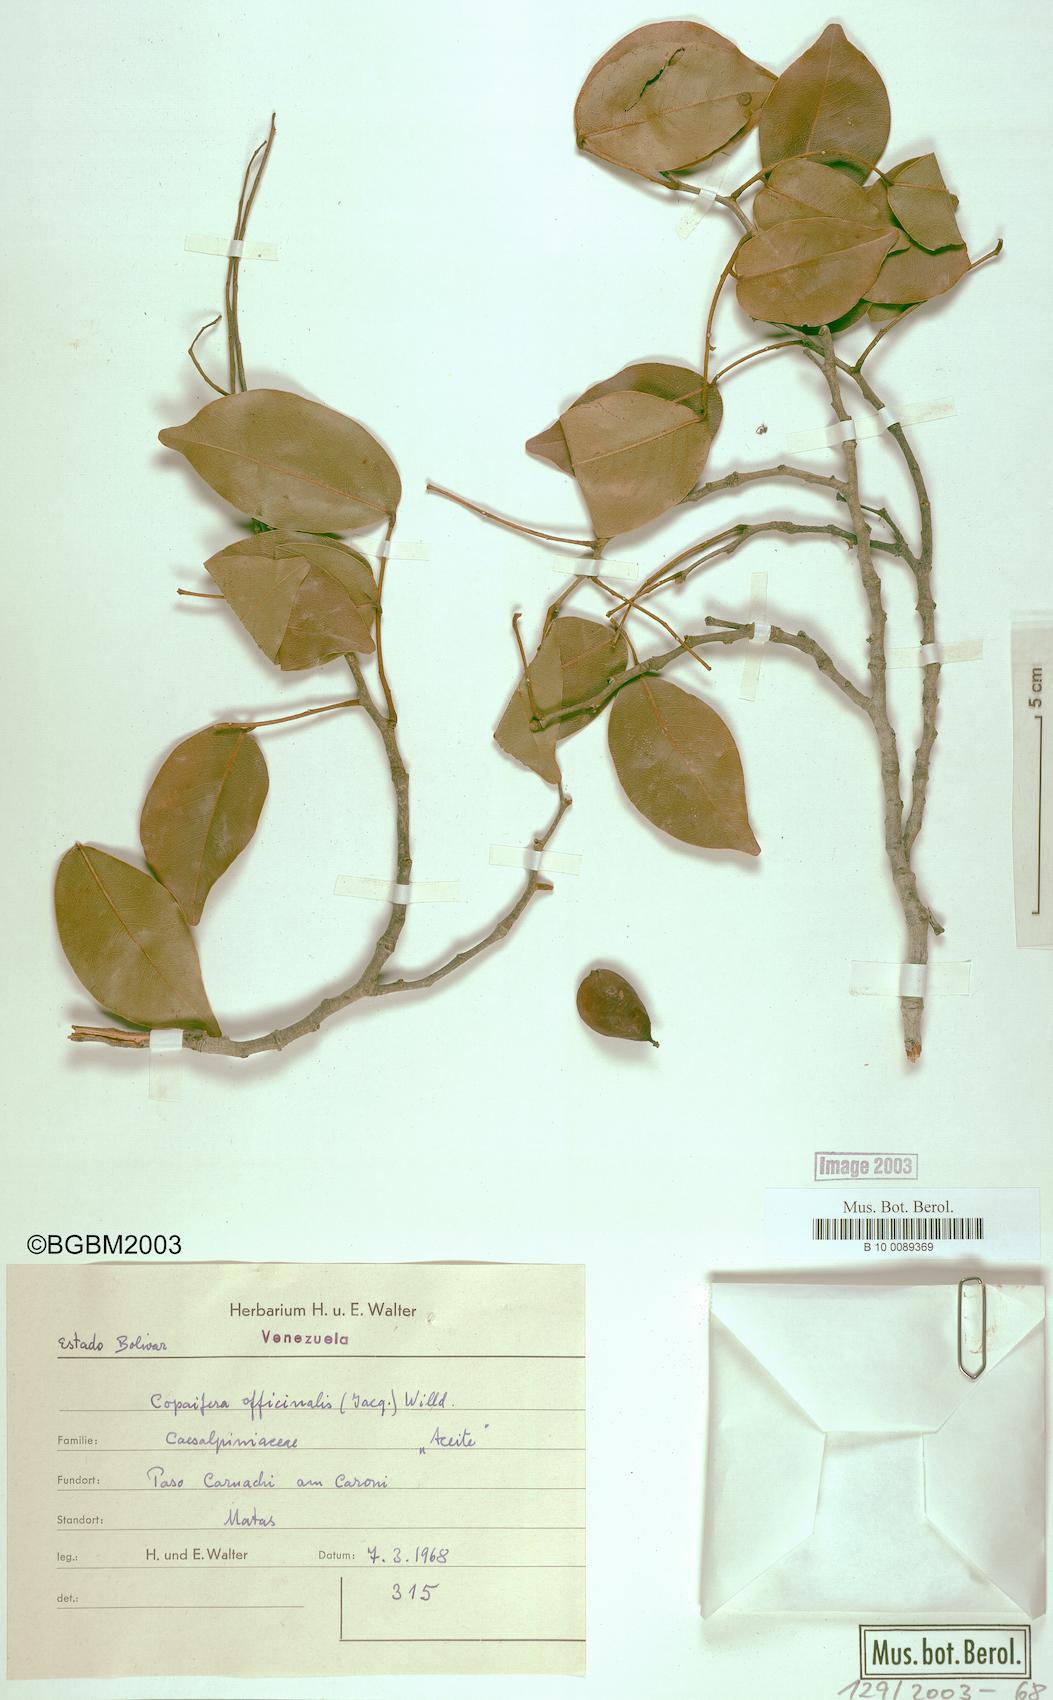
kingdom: Plantae
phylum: Tracheophyta
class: Magnoliopsida
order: Fabales
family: Fabaceae
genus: Copaifera
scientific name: Copaifera officinalis
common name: Copaiba
